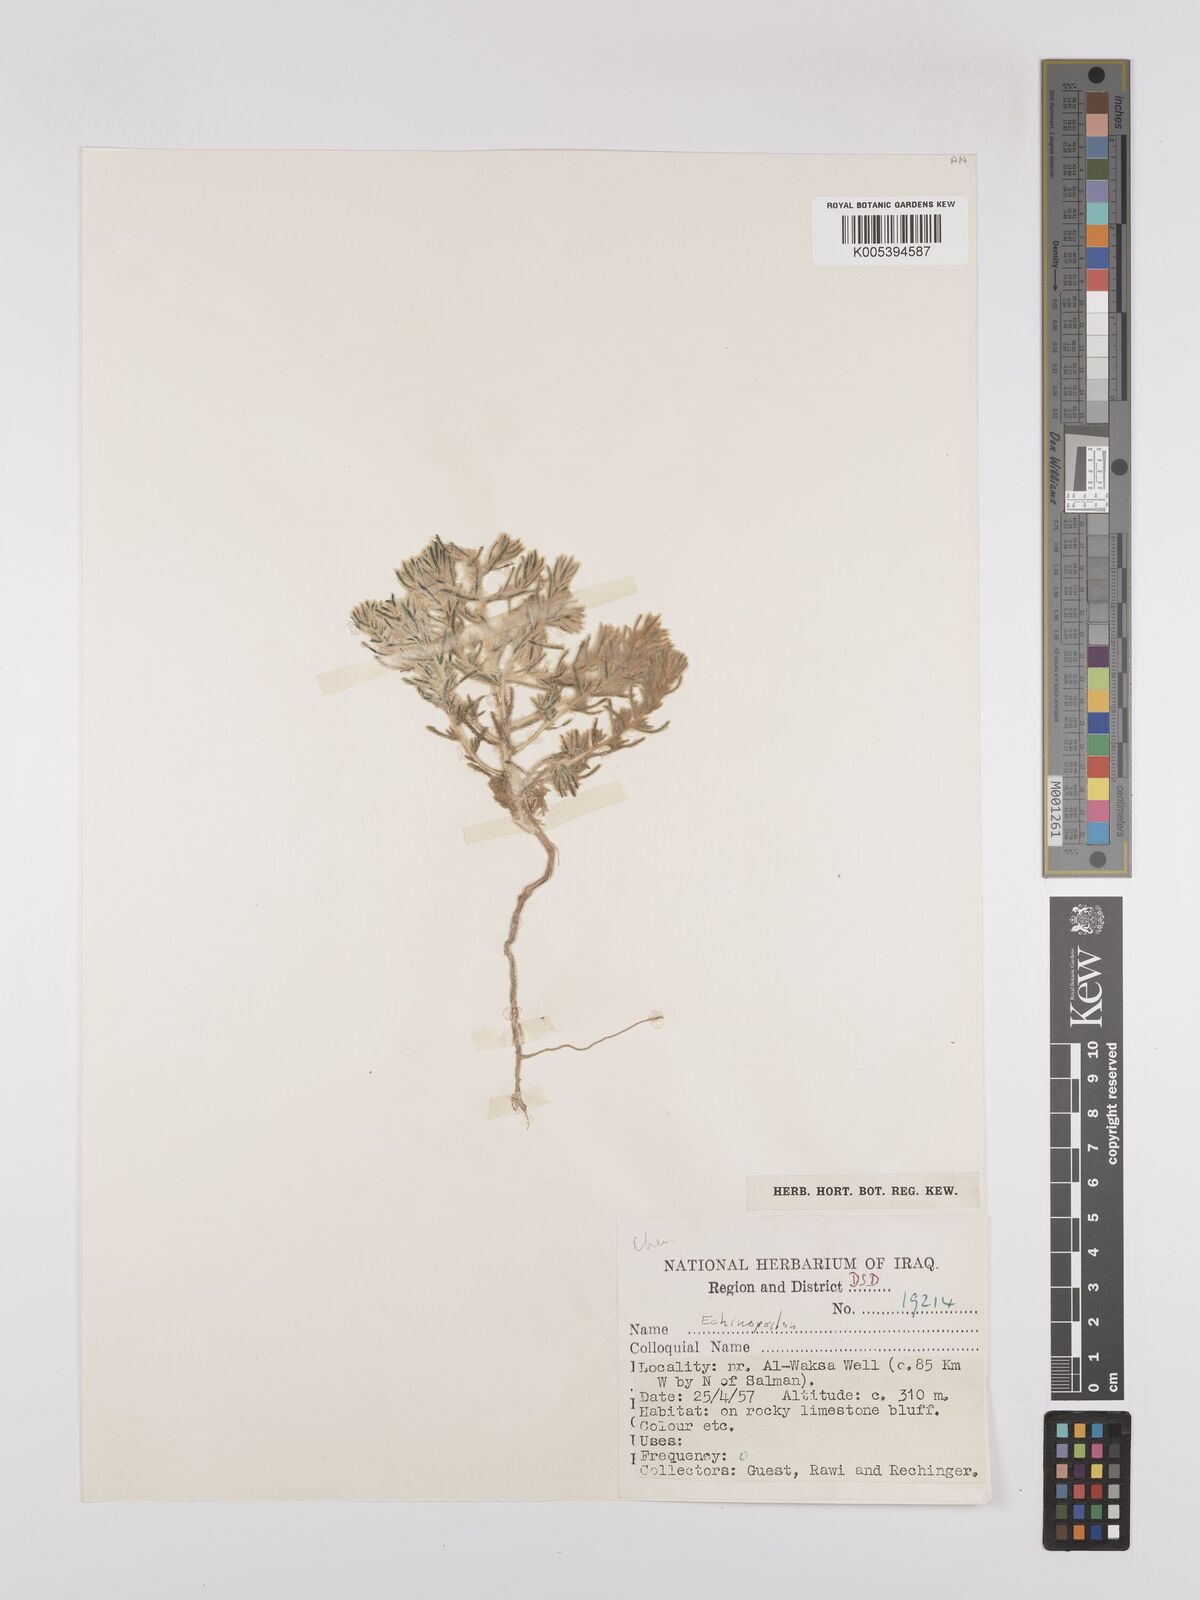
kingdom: Plantae
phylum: Tracheophyta
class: Magnoliopsida
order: Caryophyllales
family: Amaranthaceae
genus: Suaeda
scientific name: Suaeda
